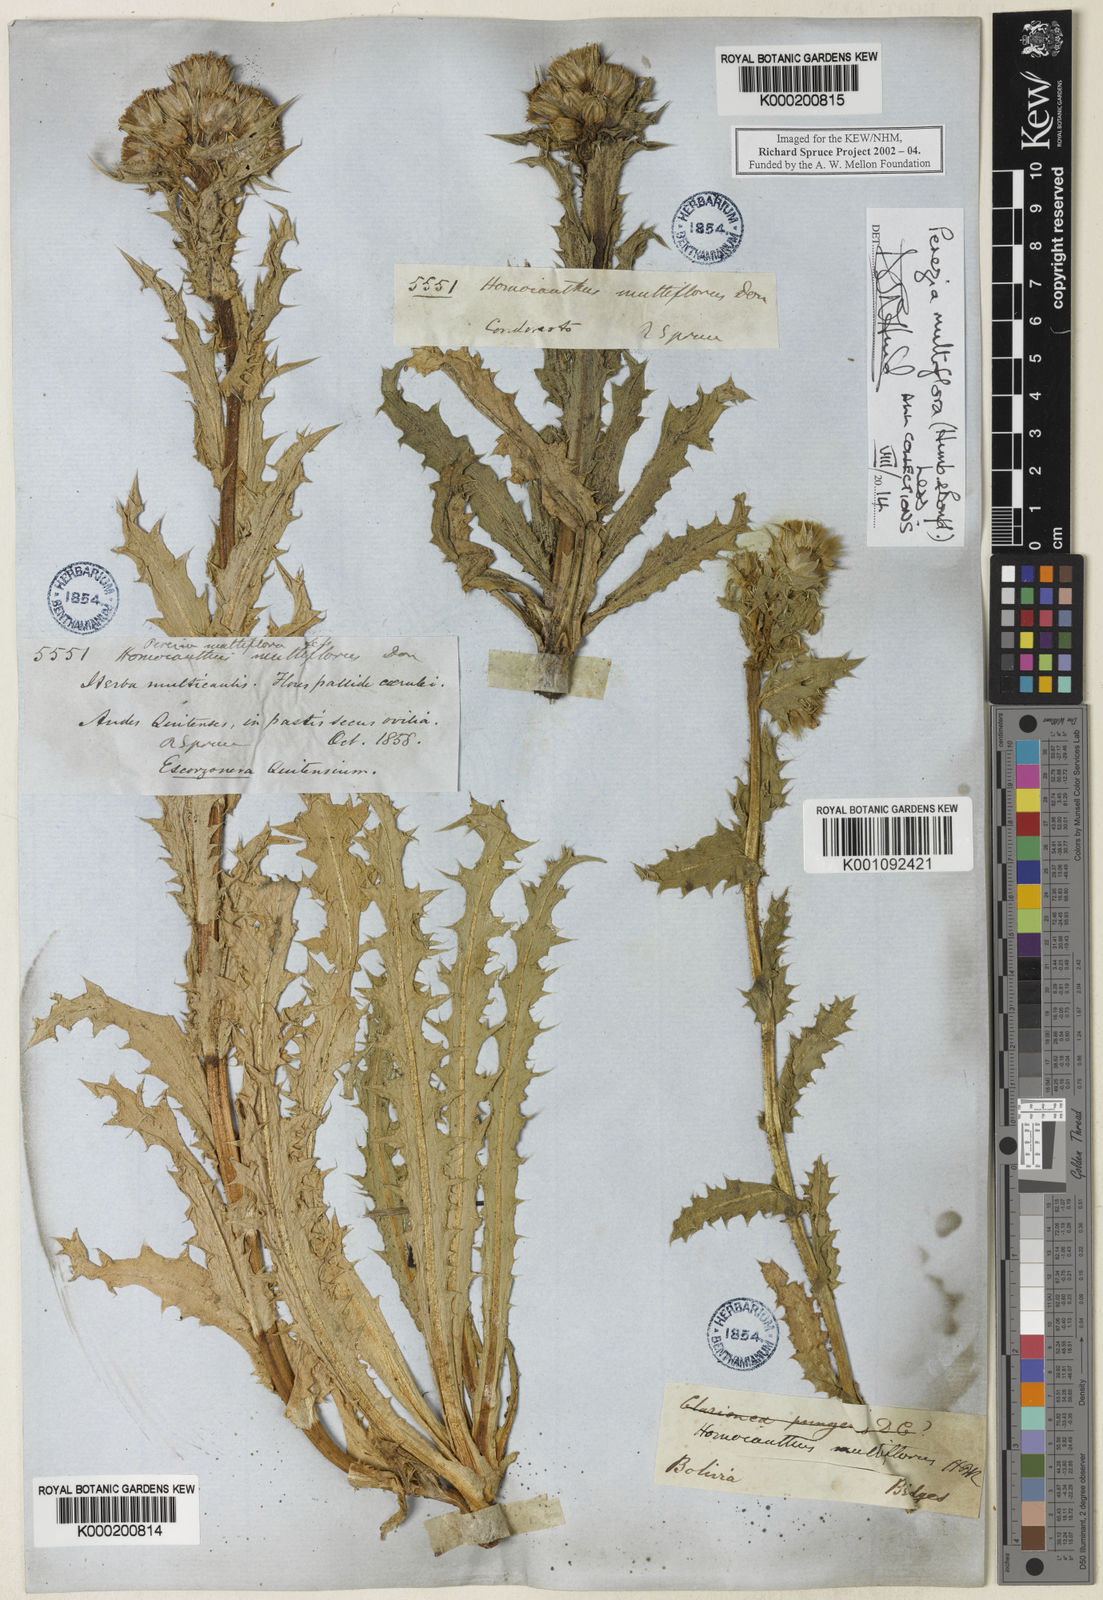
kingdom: Plantae
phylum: Tracheophyta
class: Magnoliopsida
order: Asterales
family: Asteraceae
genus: Perezia
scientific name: Perezia multiflora
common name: Perezia
